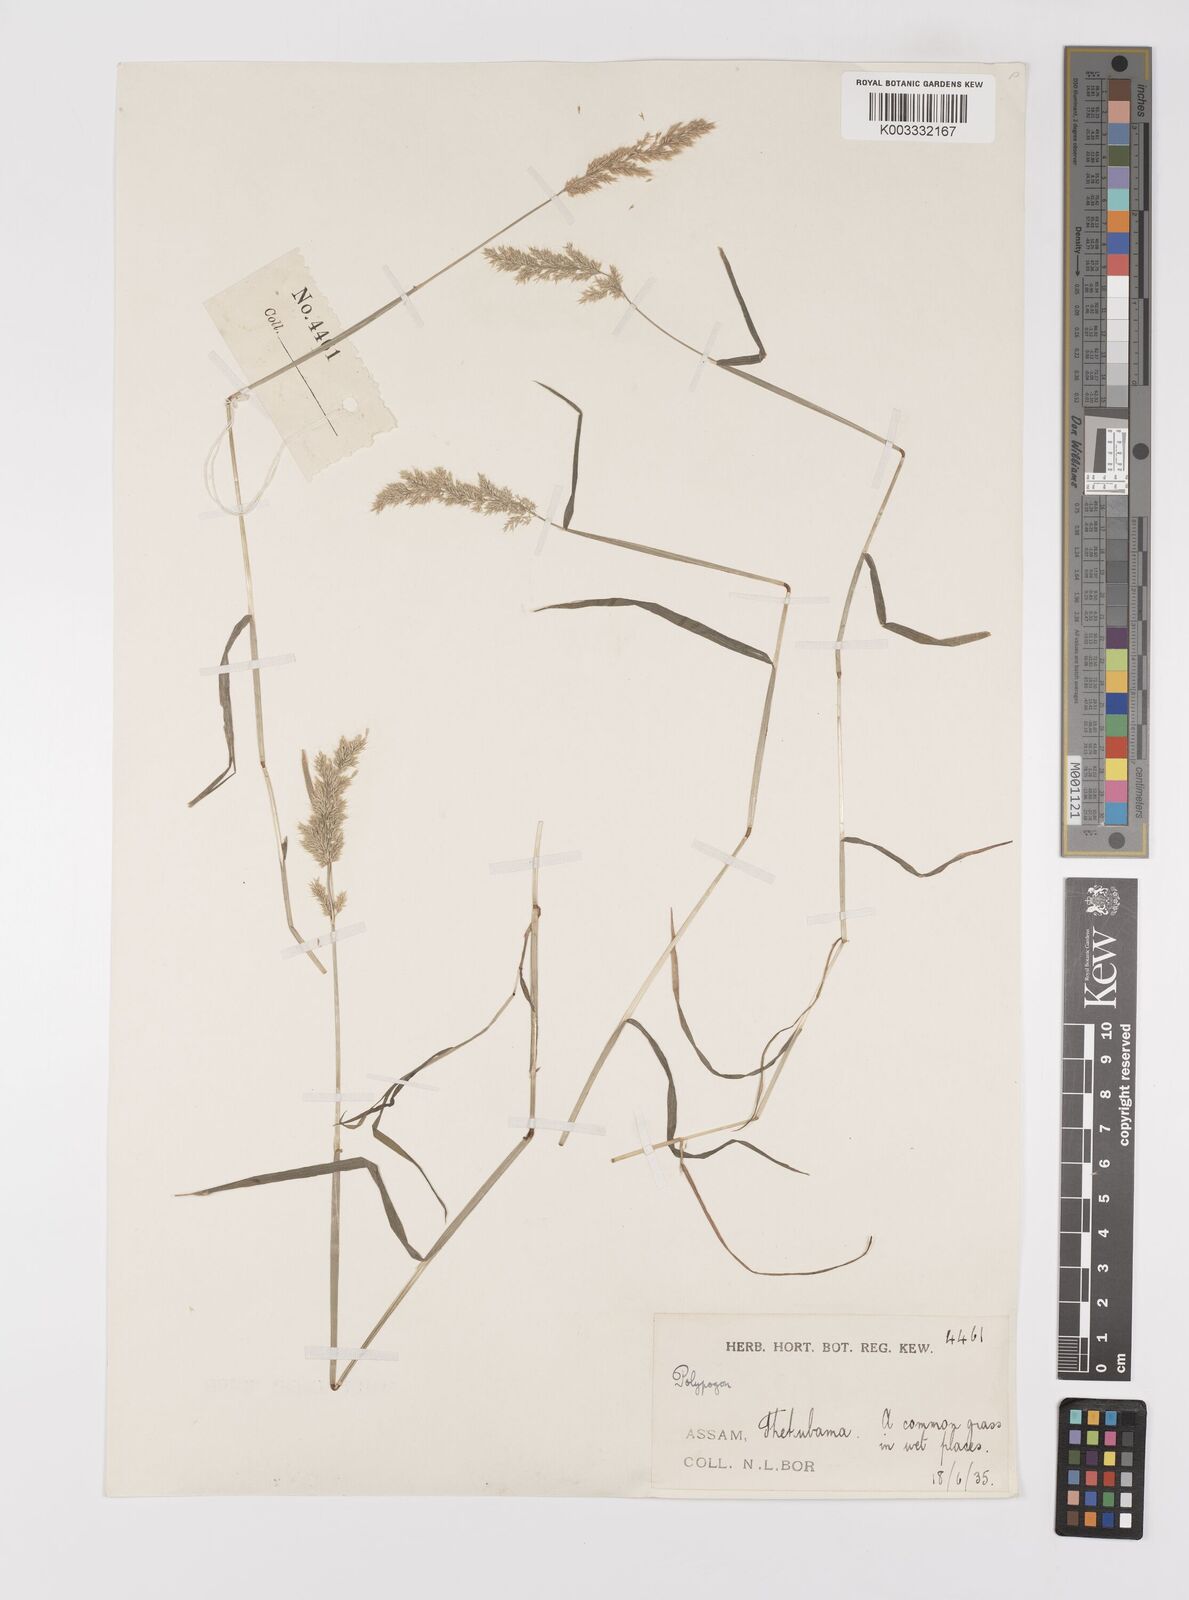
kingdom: Plantae
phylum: Tracheophyta
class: Liliopsida
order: Poales
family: Poaceae
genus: Polypogon
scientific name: Polypogon fugax
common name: Asia minor bluegrass
